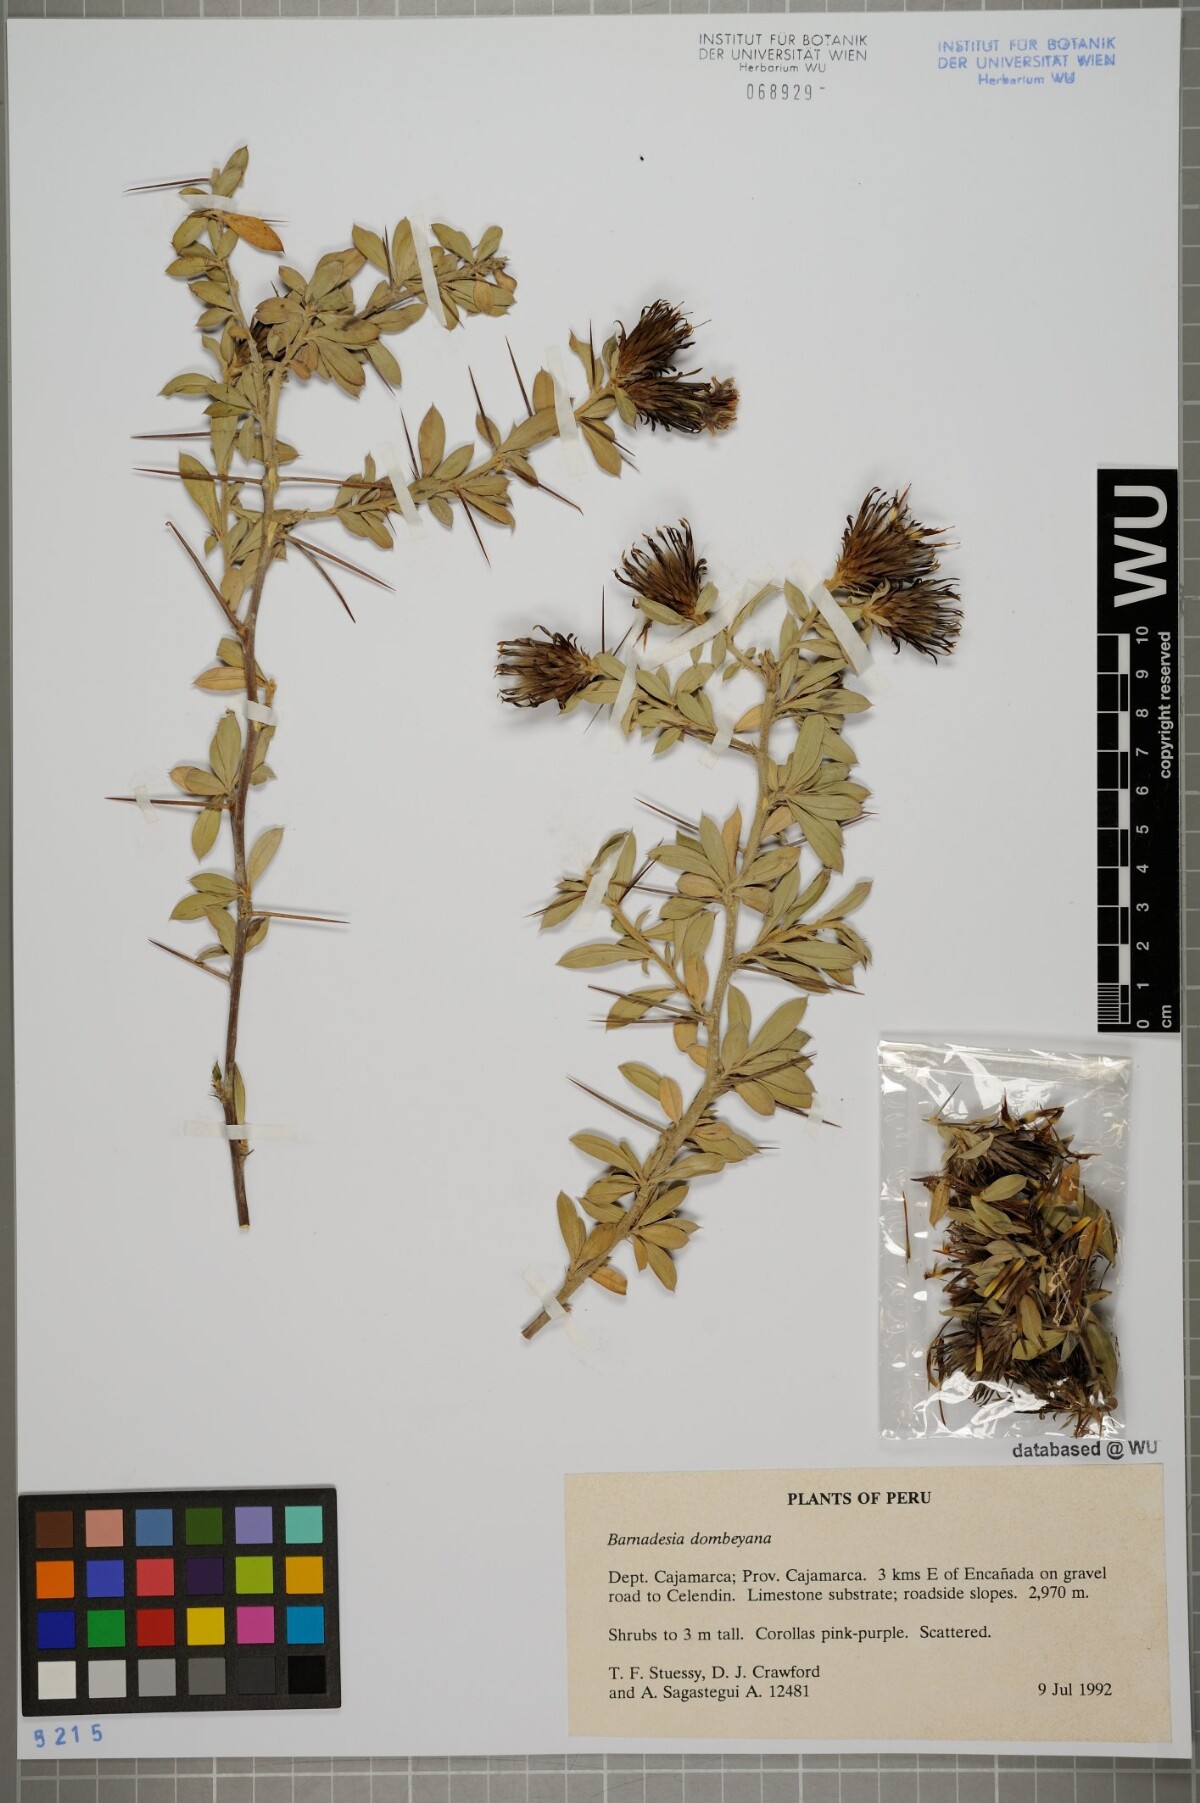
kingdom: Plantae
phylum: Tracheophyta
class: Magnoliopsida
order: Asterales
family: Asteraceae
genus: Barnadesia
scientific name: Barnadesia dombeyana
